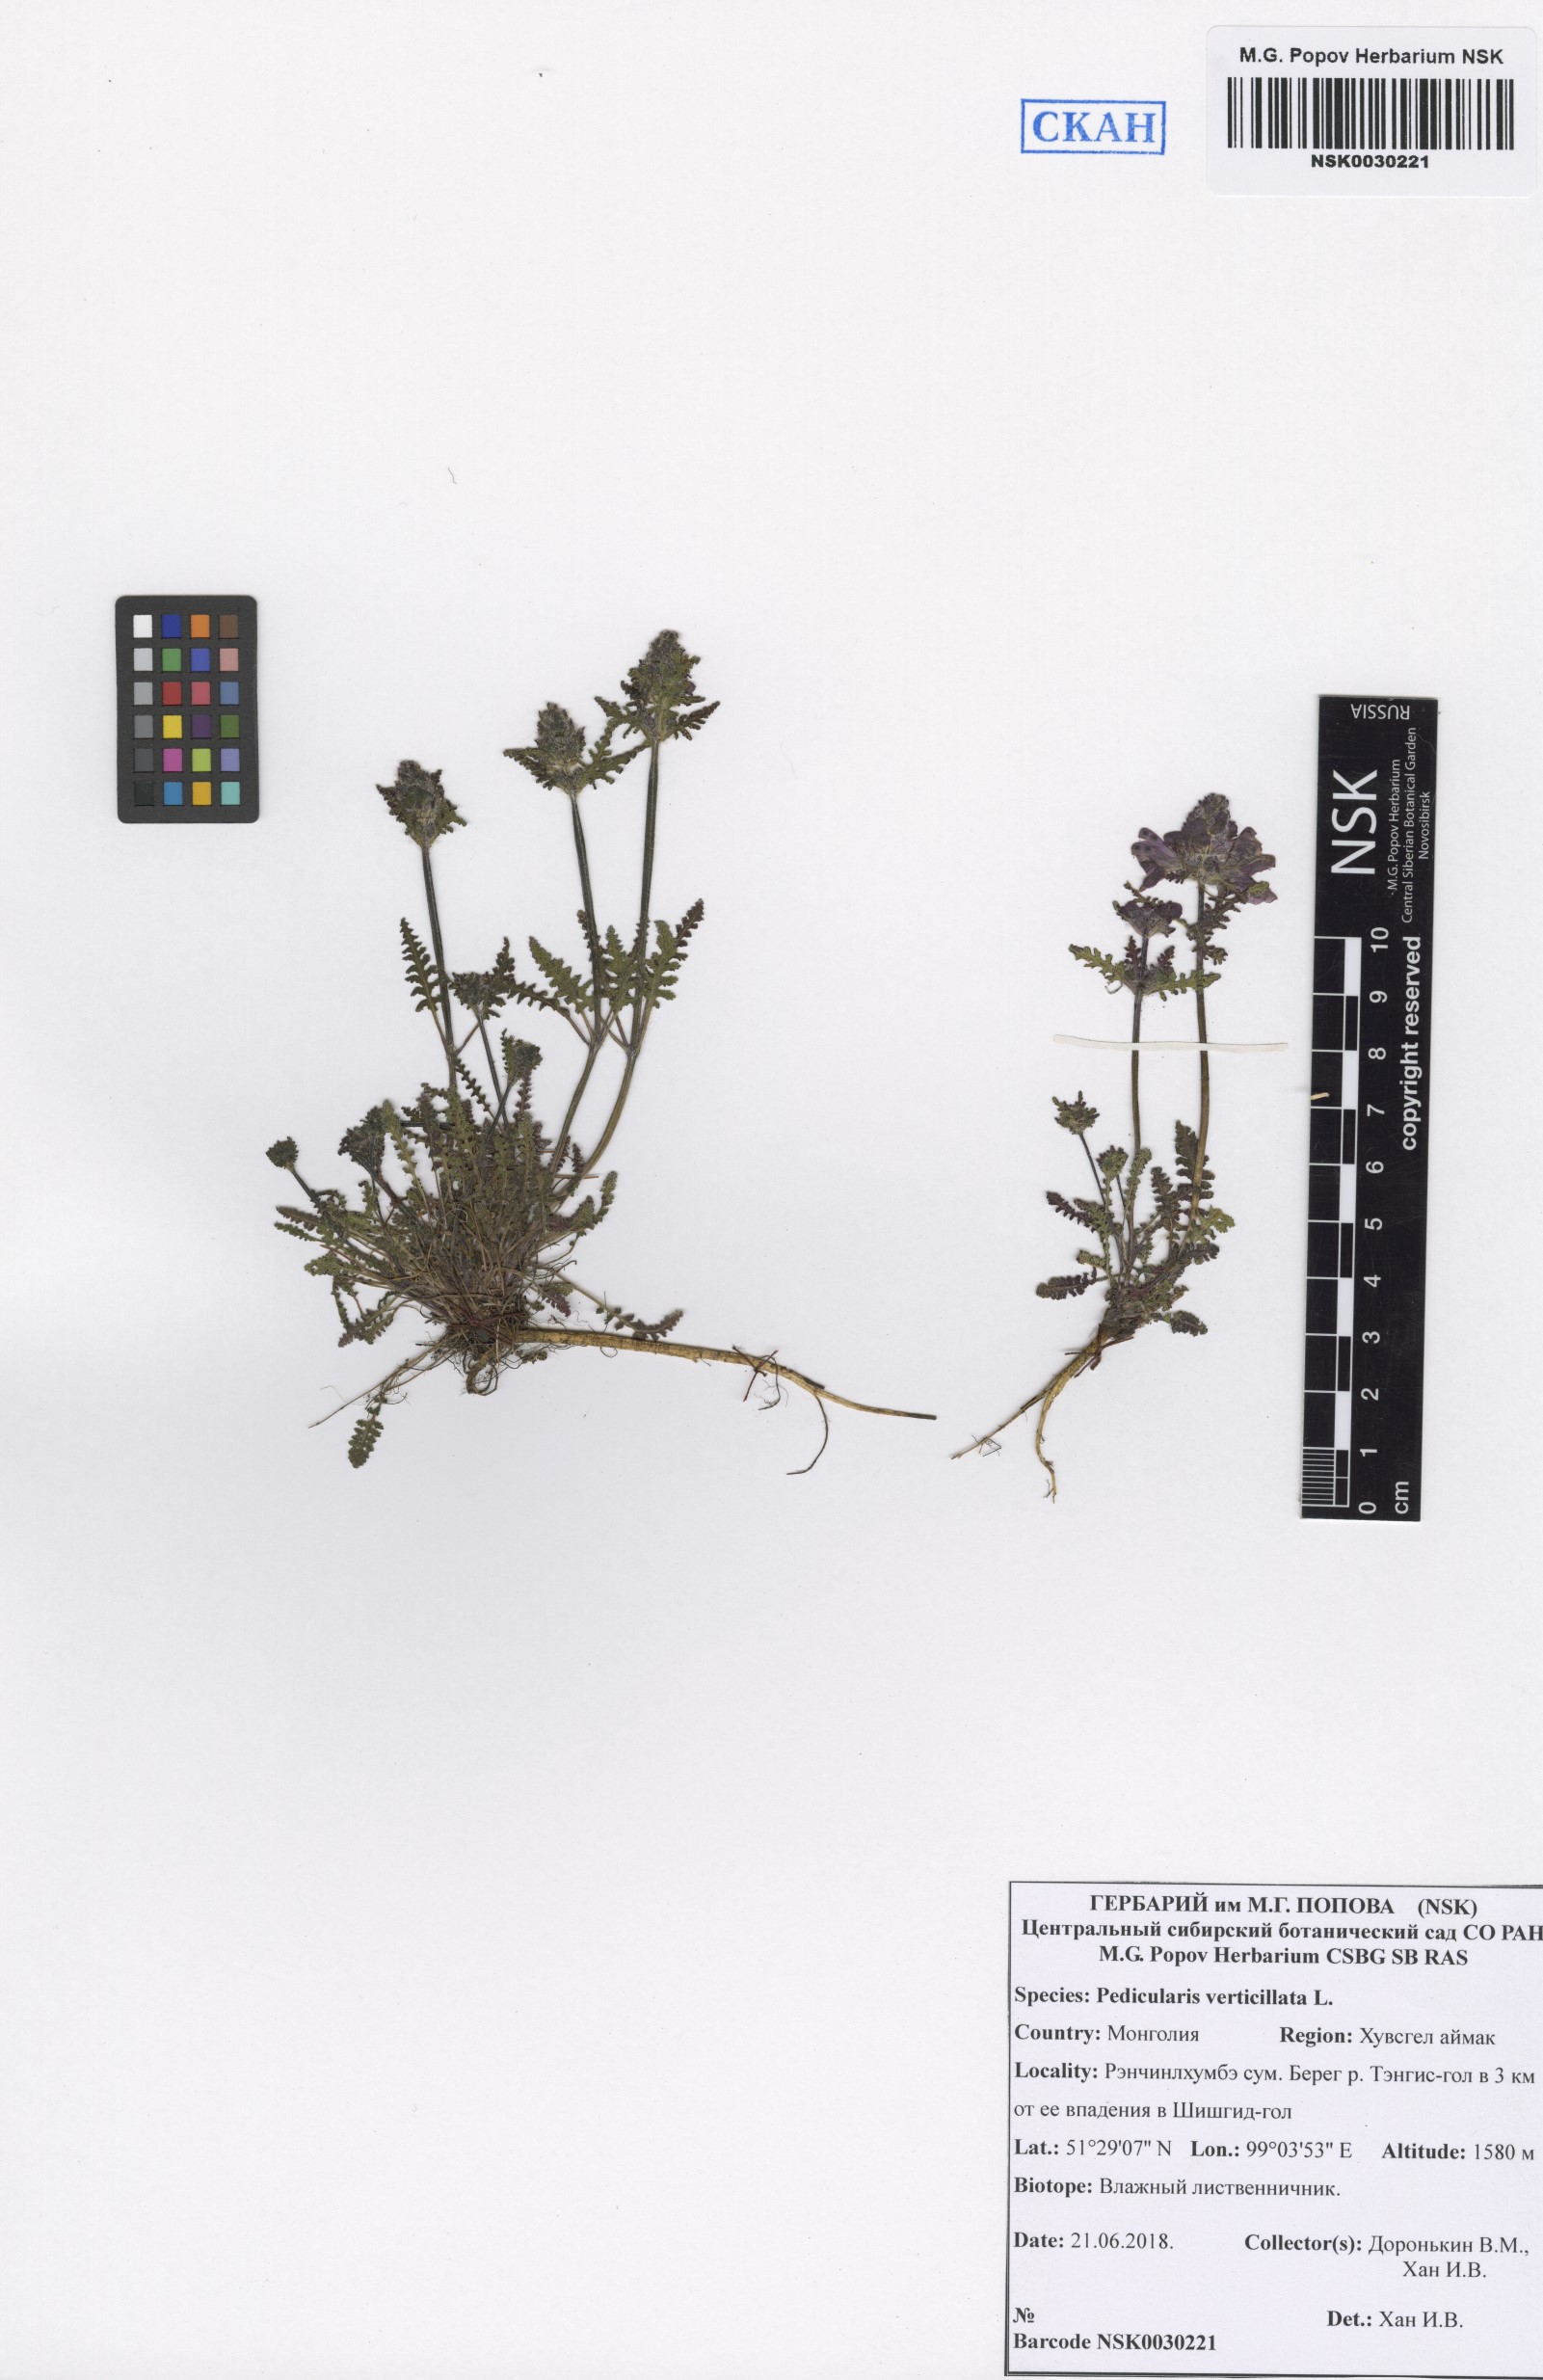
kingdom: Plantae
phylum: Tracheophyta
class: Magnoliopsida
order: Lamiales
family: Orobanchaceae
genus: Pedicularis
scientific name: Pedicularis verticillata
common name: Whorled lousewort
